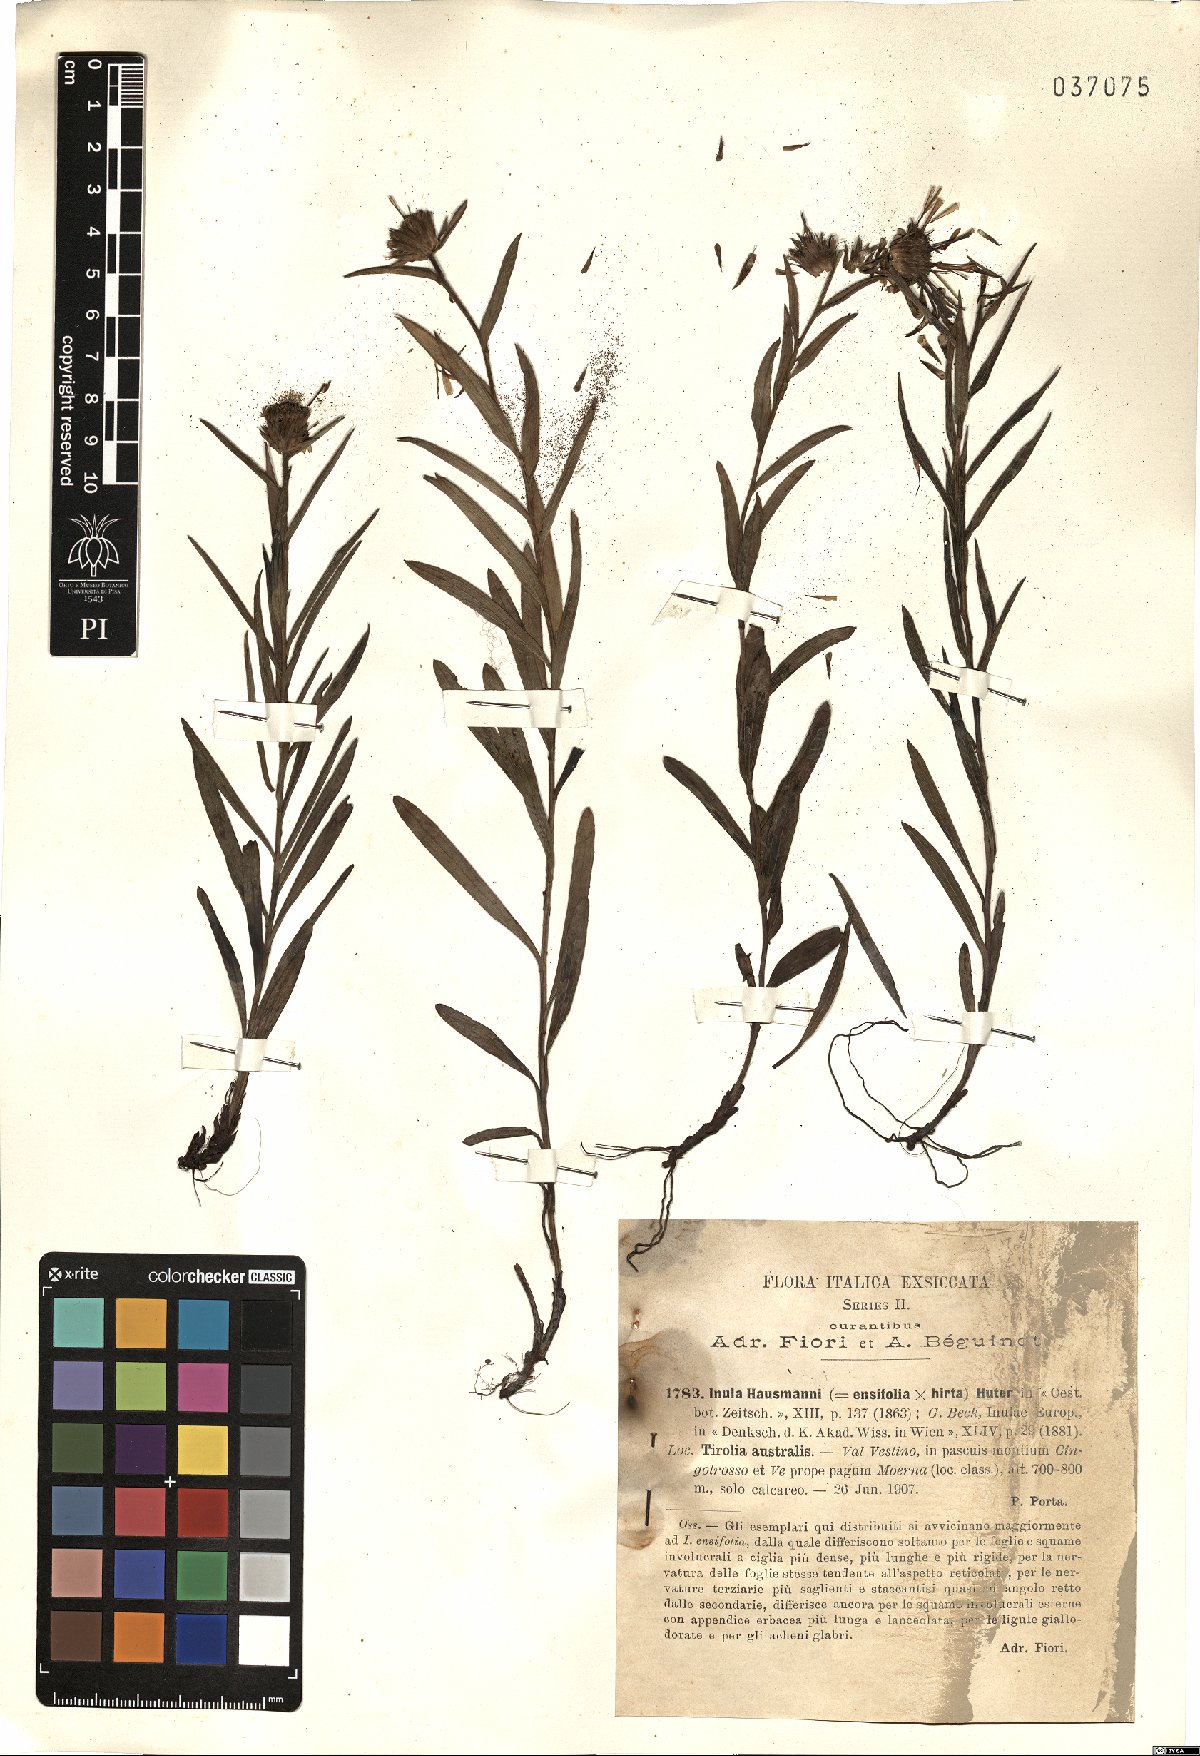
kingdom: Plantae
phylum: Tracheophyta
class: Magnoliopsida
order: Asterales
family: Asteraceae
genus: Pentanema
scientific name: Pentanema hausmannii
